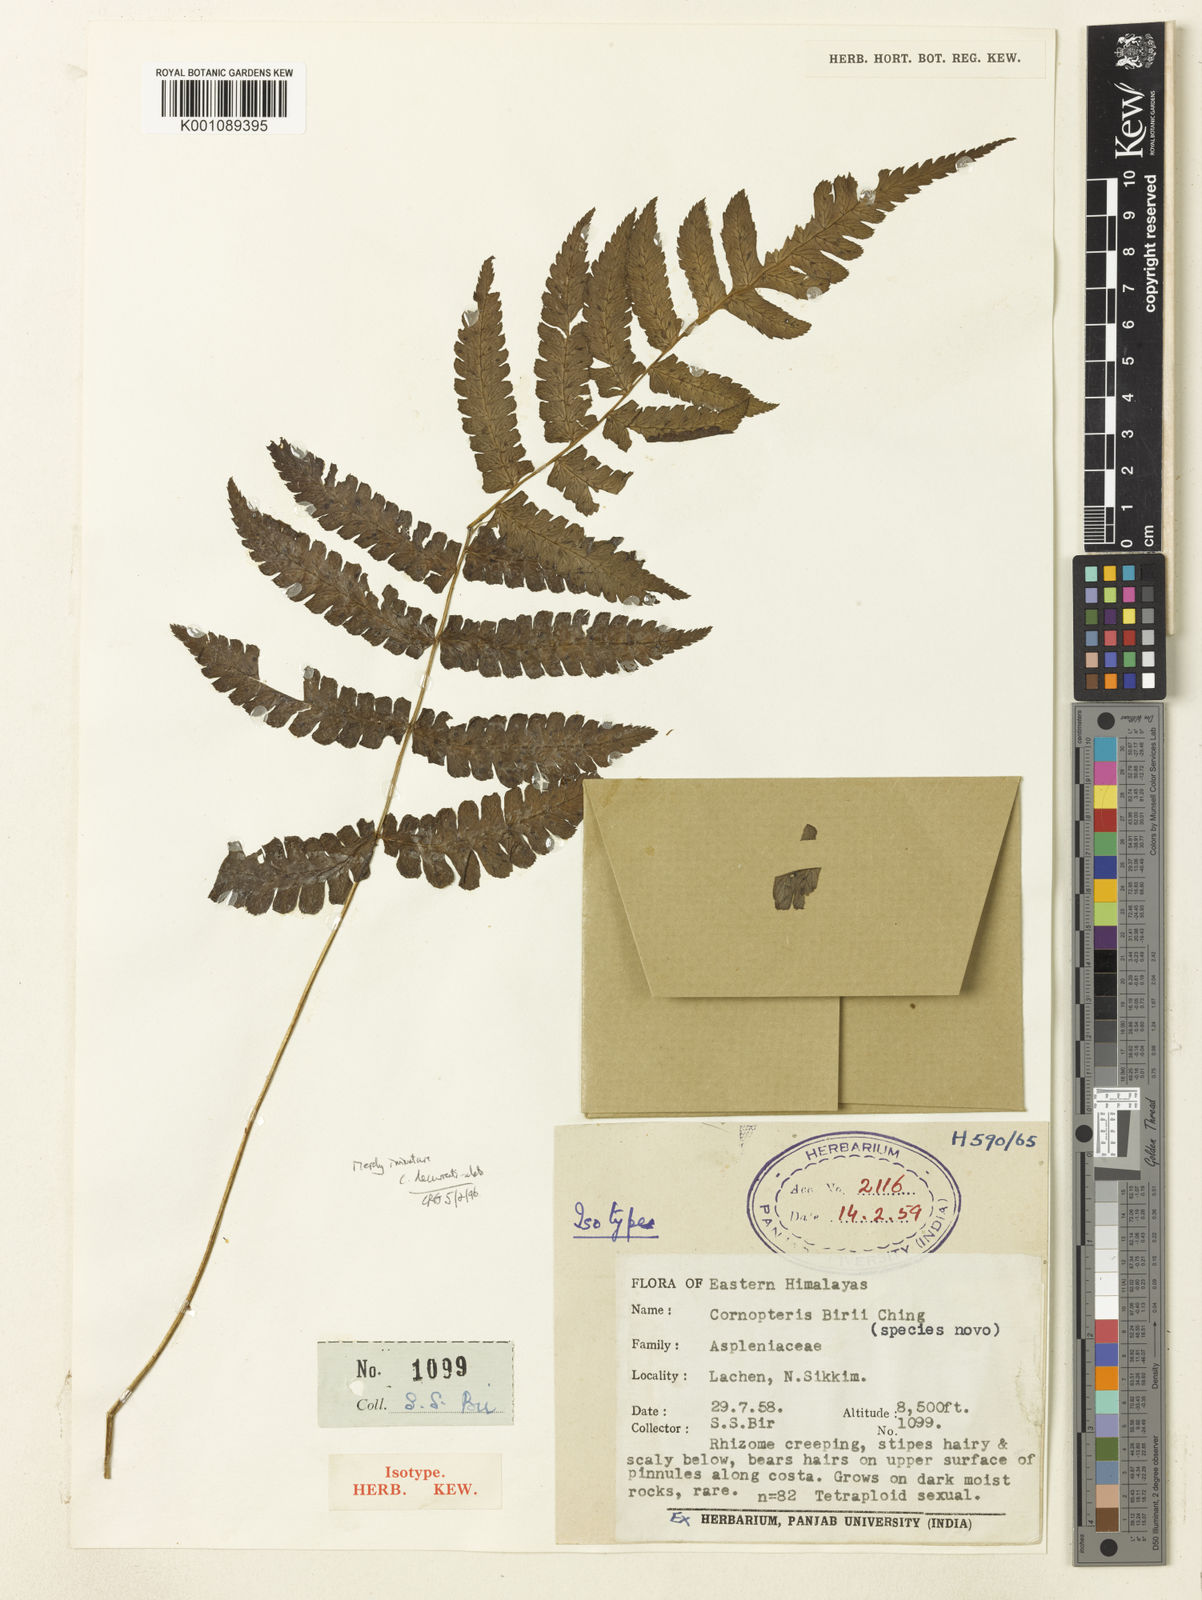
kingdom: Plantae
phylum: Tracheophyta
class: Polypodiopsida
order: Polypodiales
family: Athyriaceae
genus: Diplazium
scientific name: Diplazium
